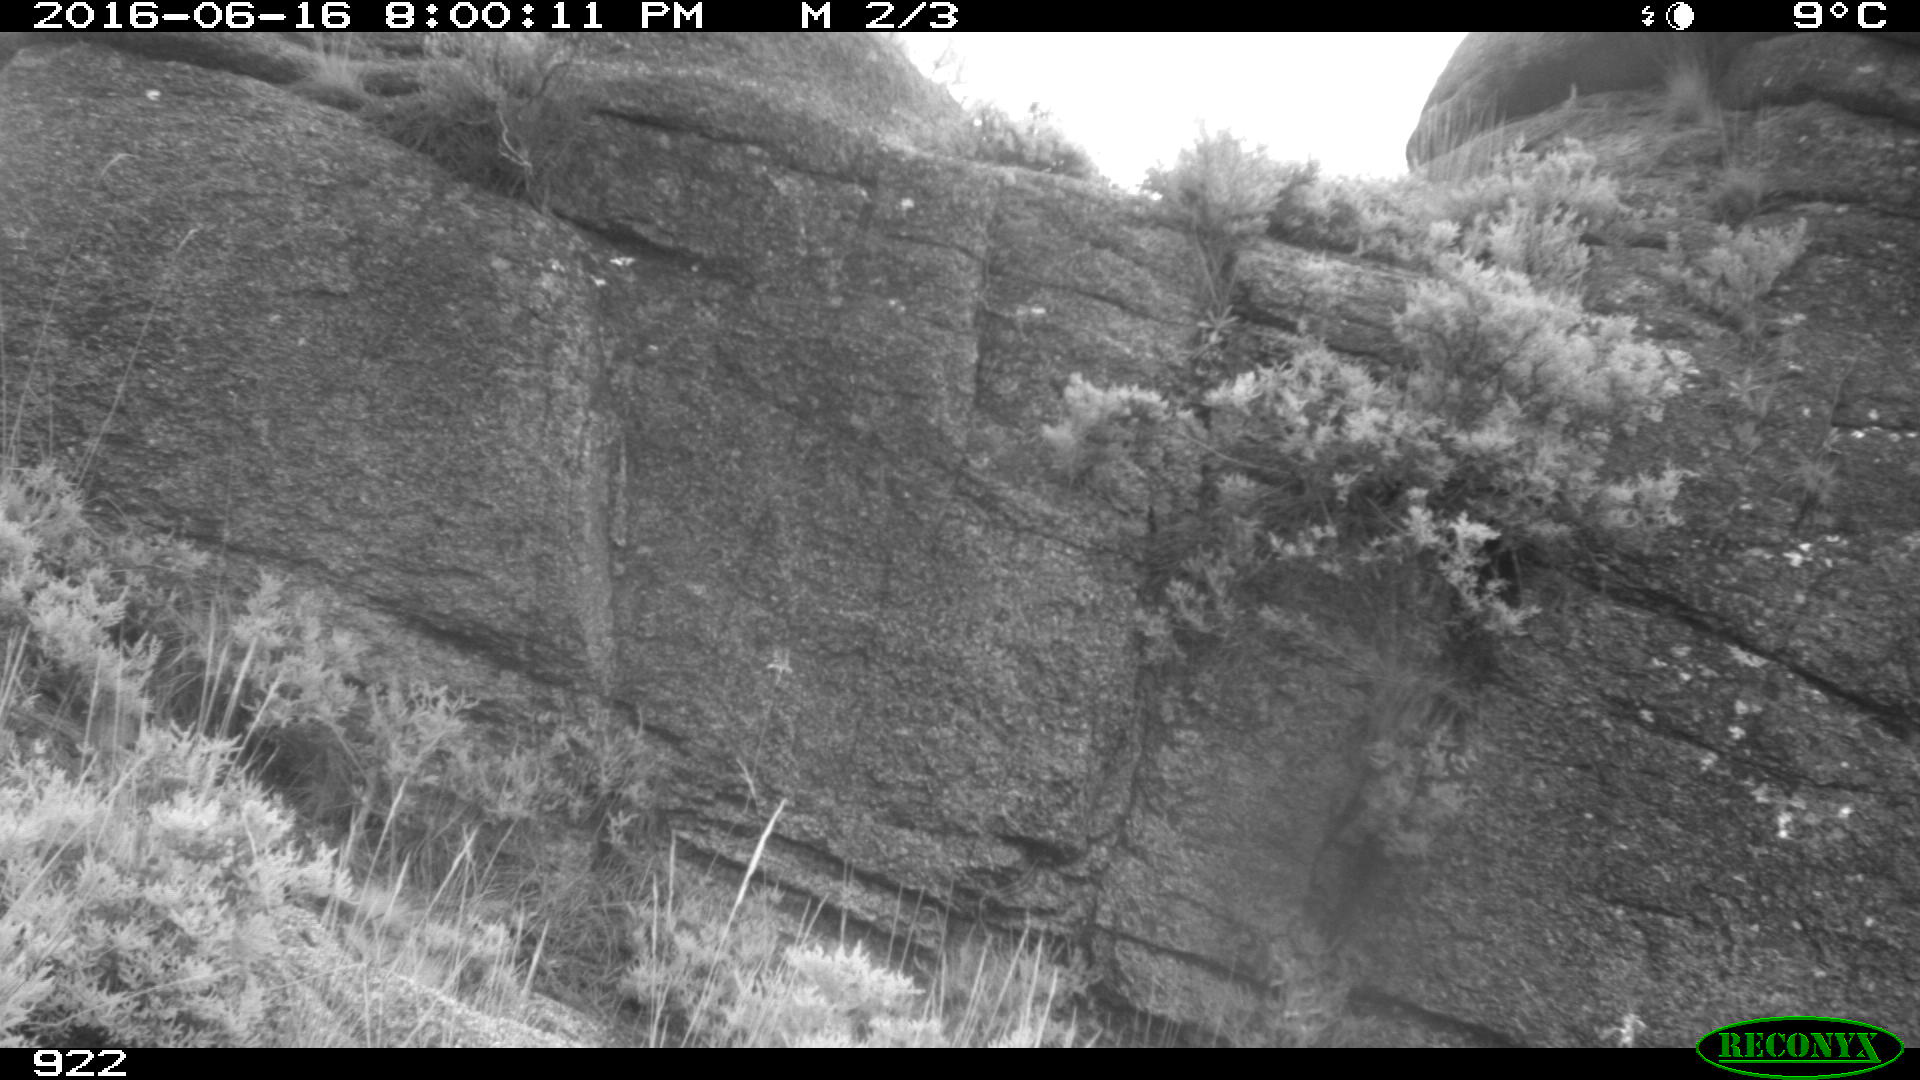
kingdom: Animalia
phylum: Chordata
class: Mammalia
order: Artiodactyla
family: Suidae
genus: Sus
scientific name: Sus scrofa
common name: Wild boar
